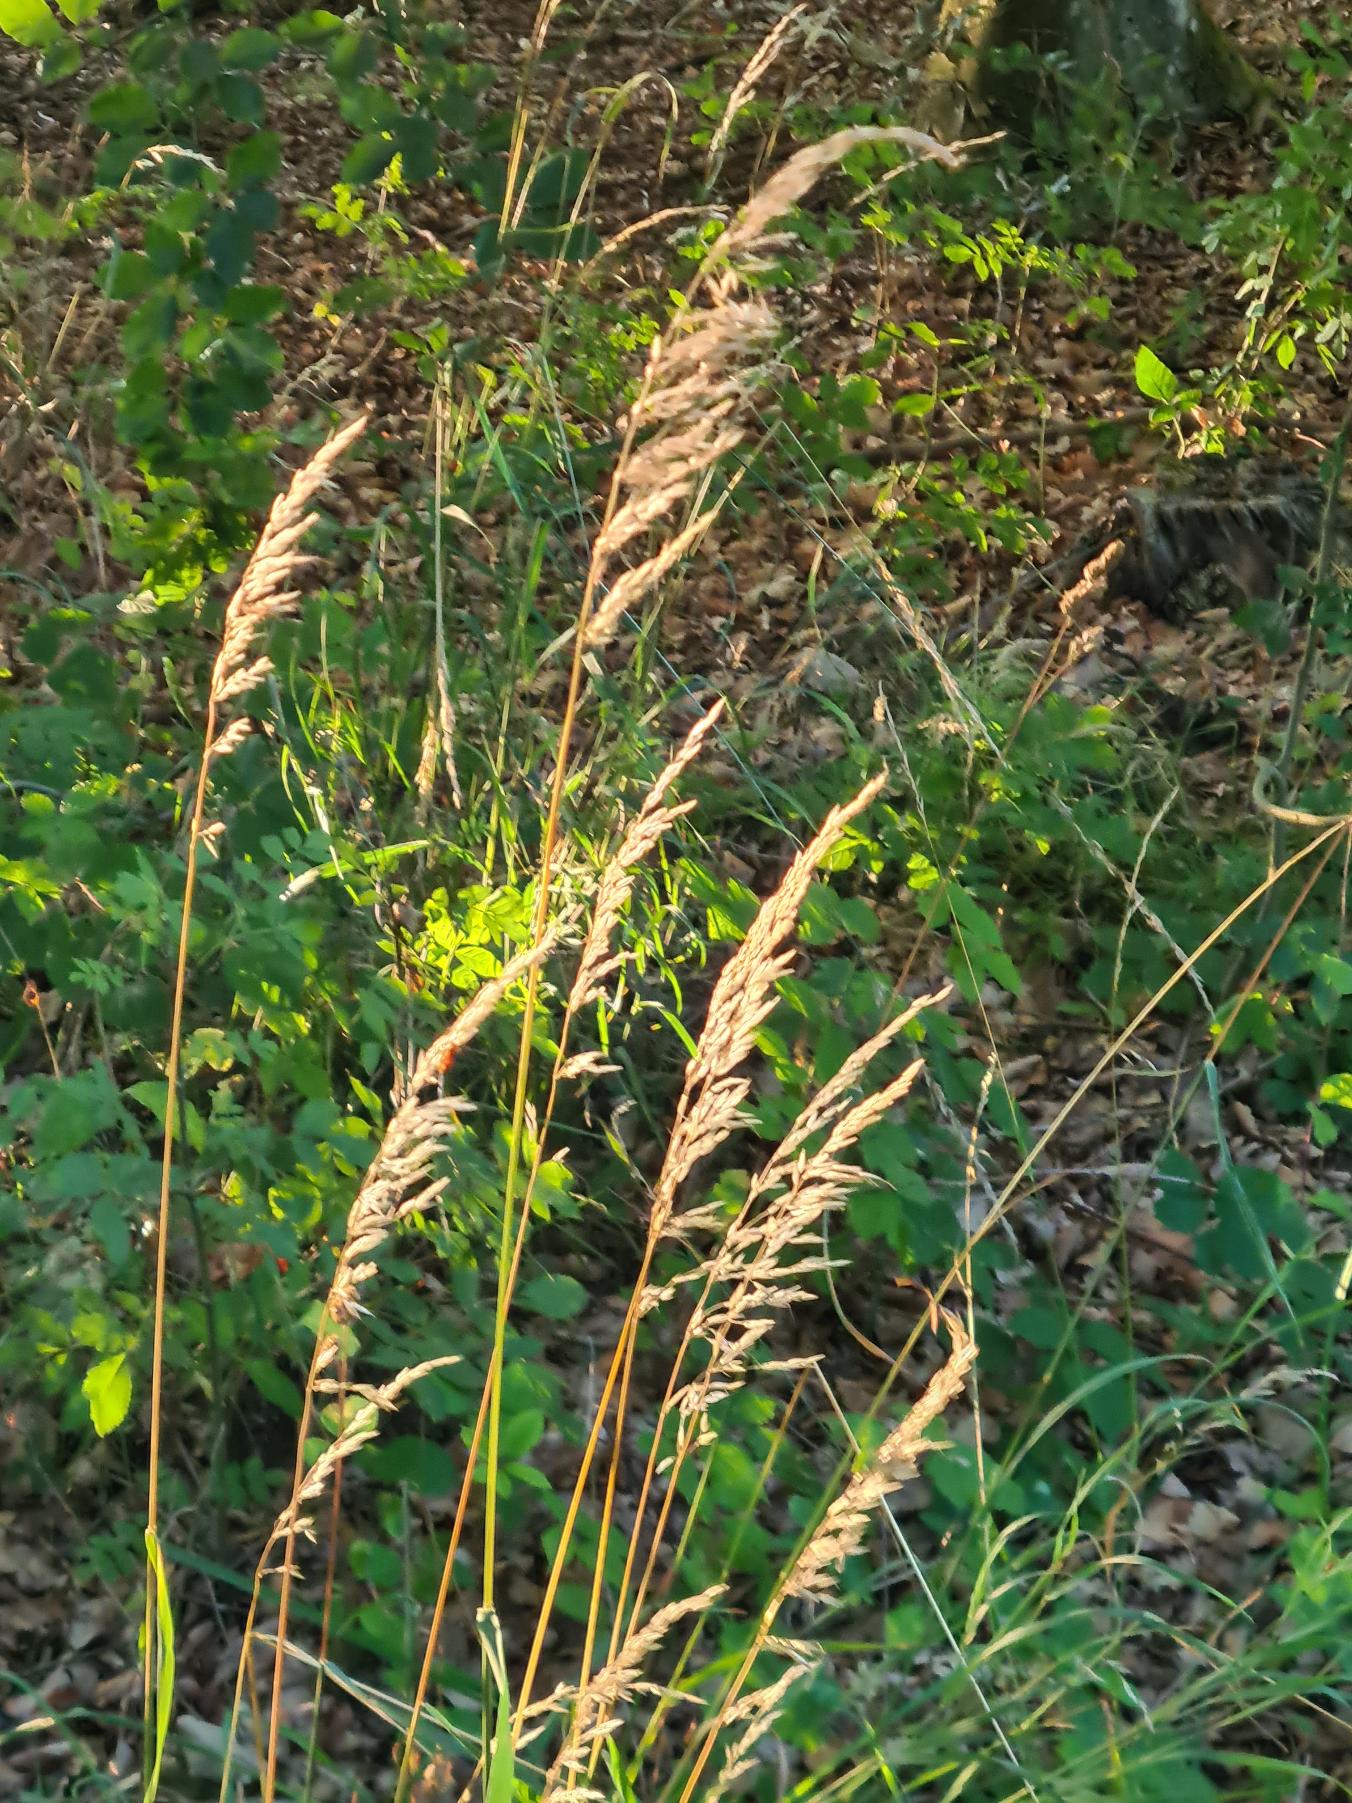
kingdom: Plantae
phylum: Tracheophyta
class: Liliopsida
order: Poales
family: Poaceae
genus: Arrhenatherum
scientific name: Arrhenatherum elatius
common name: Draphavre
